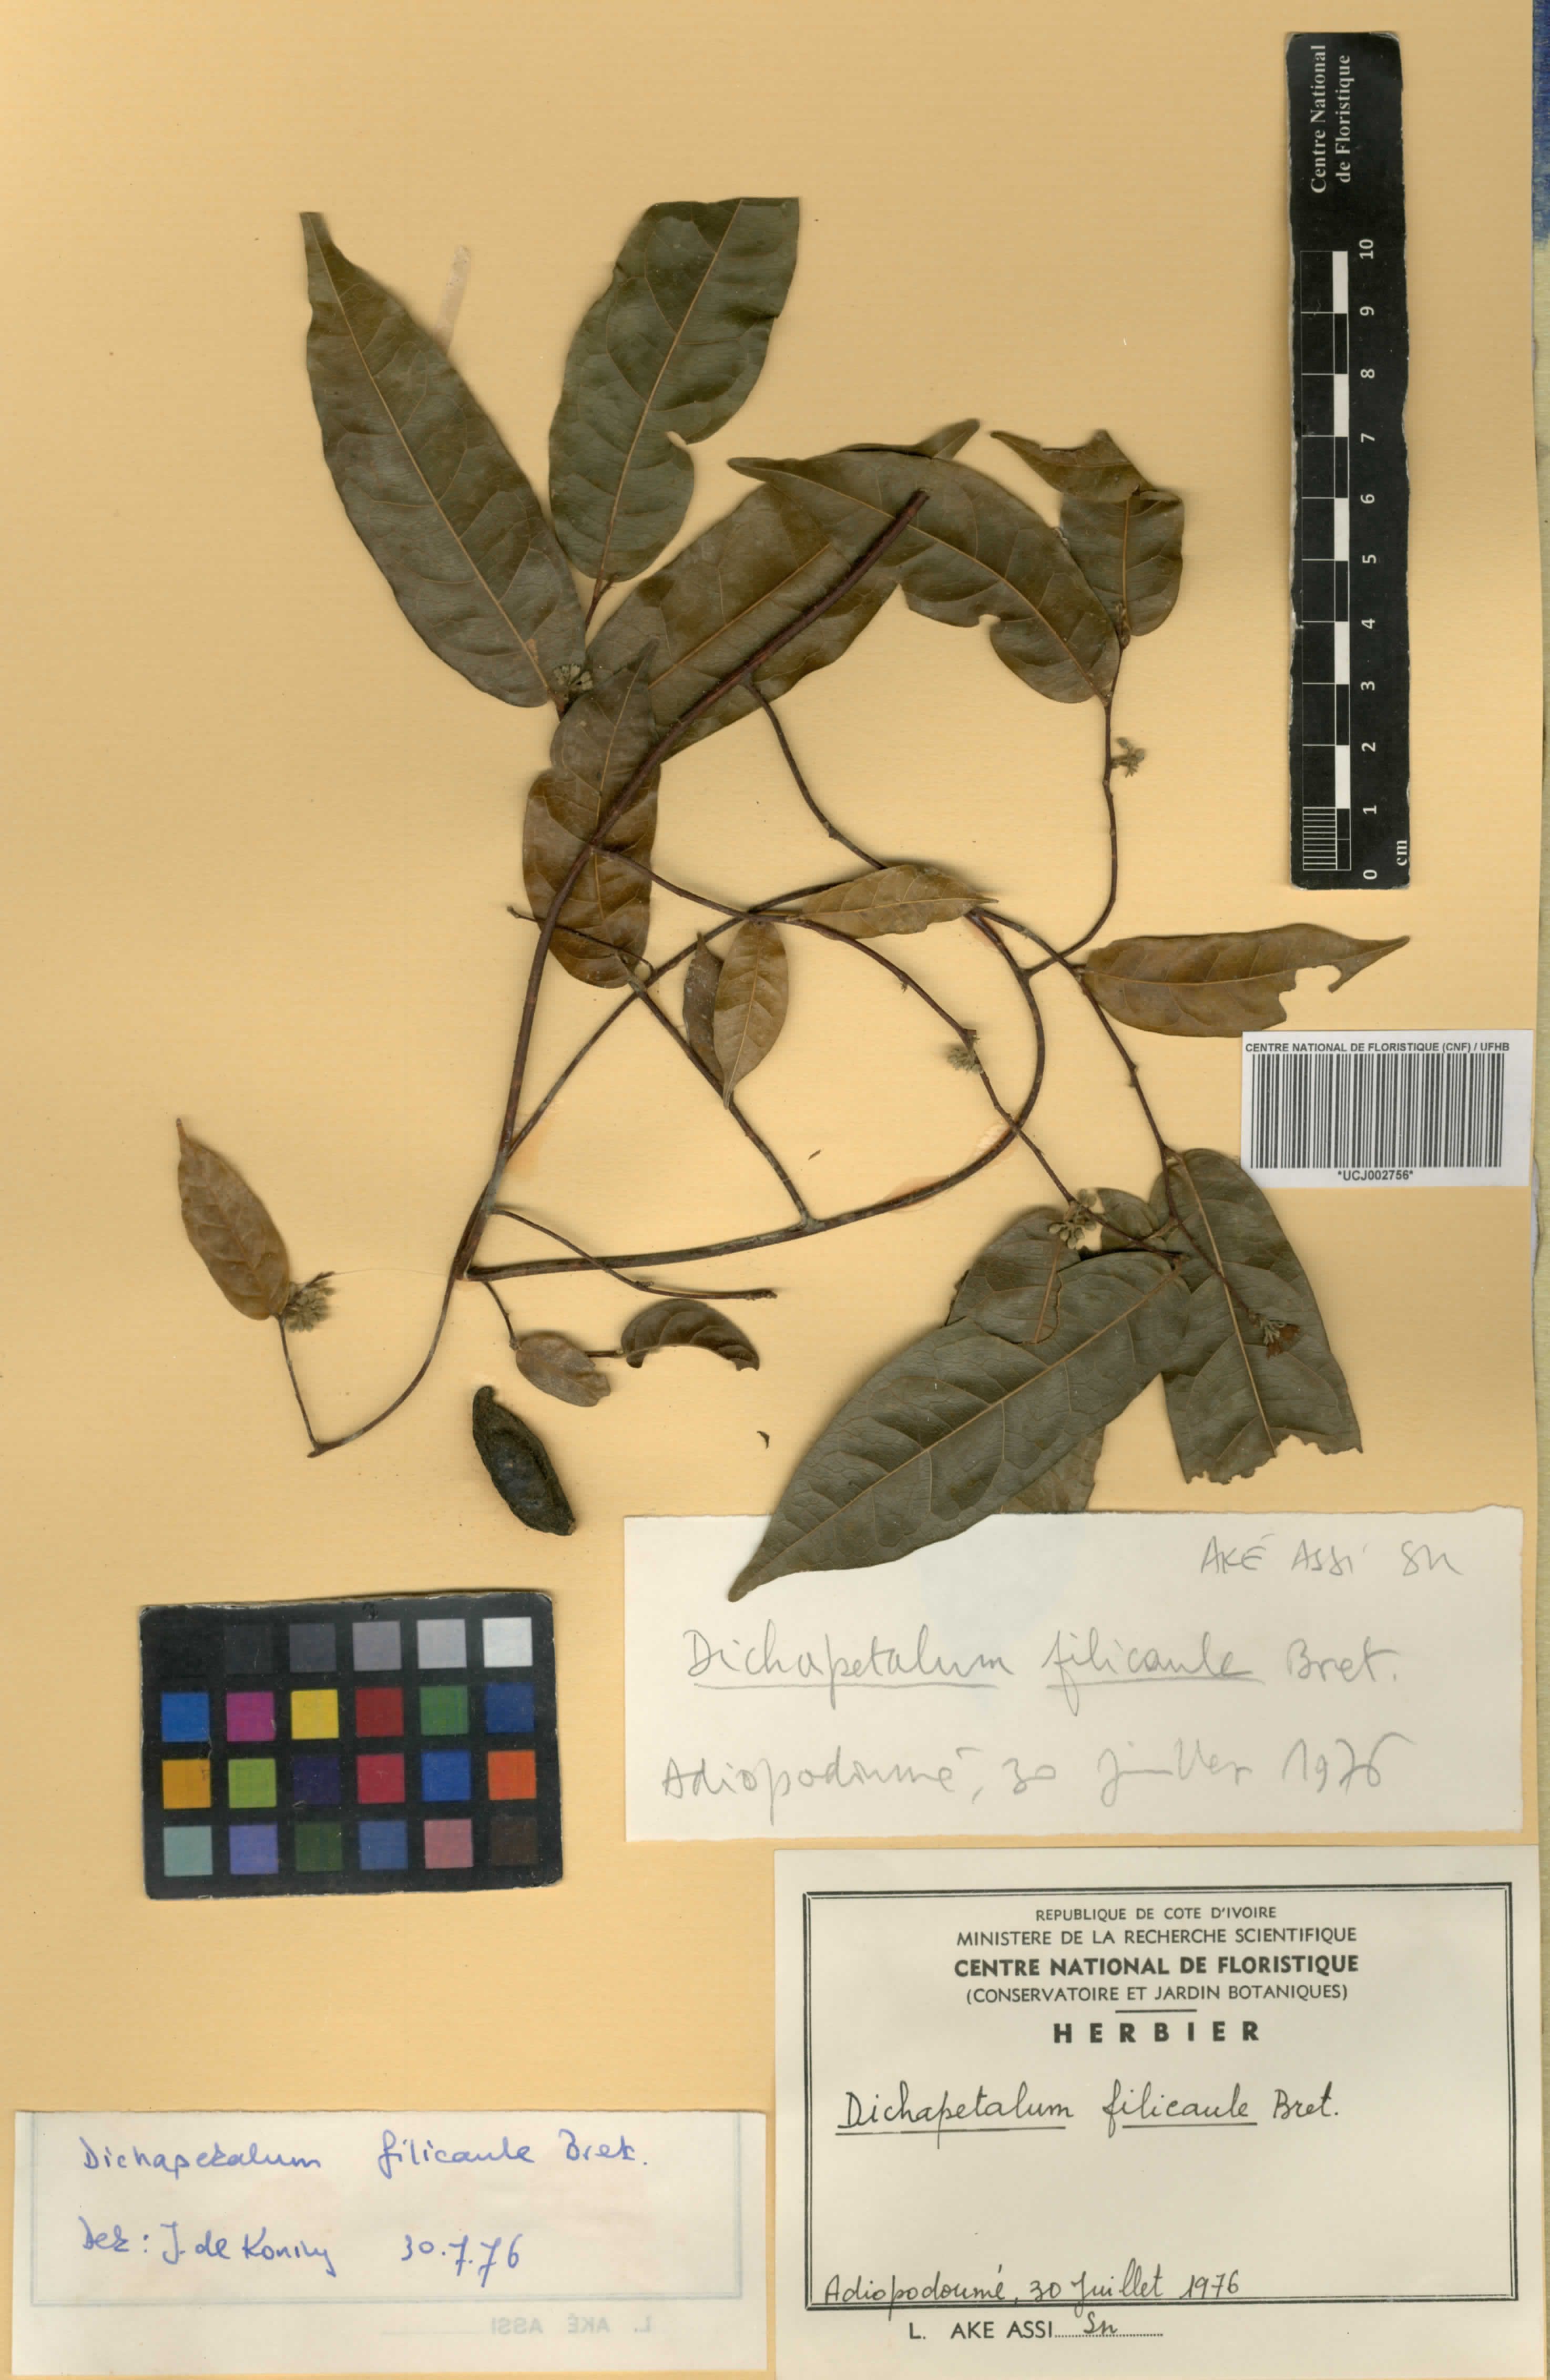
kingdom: Plantae
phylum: Tracheophyta
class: Magnoliopsida
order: Malpighiales
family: Dichapetalaceae
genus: Dichapetalum
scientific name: Dichapetalum filicaule
